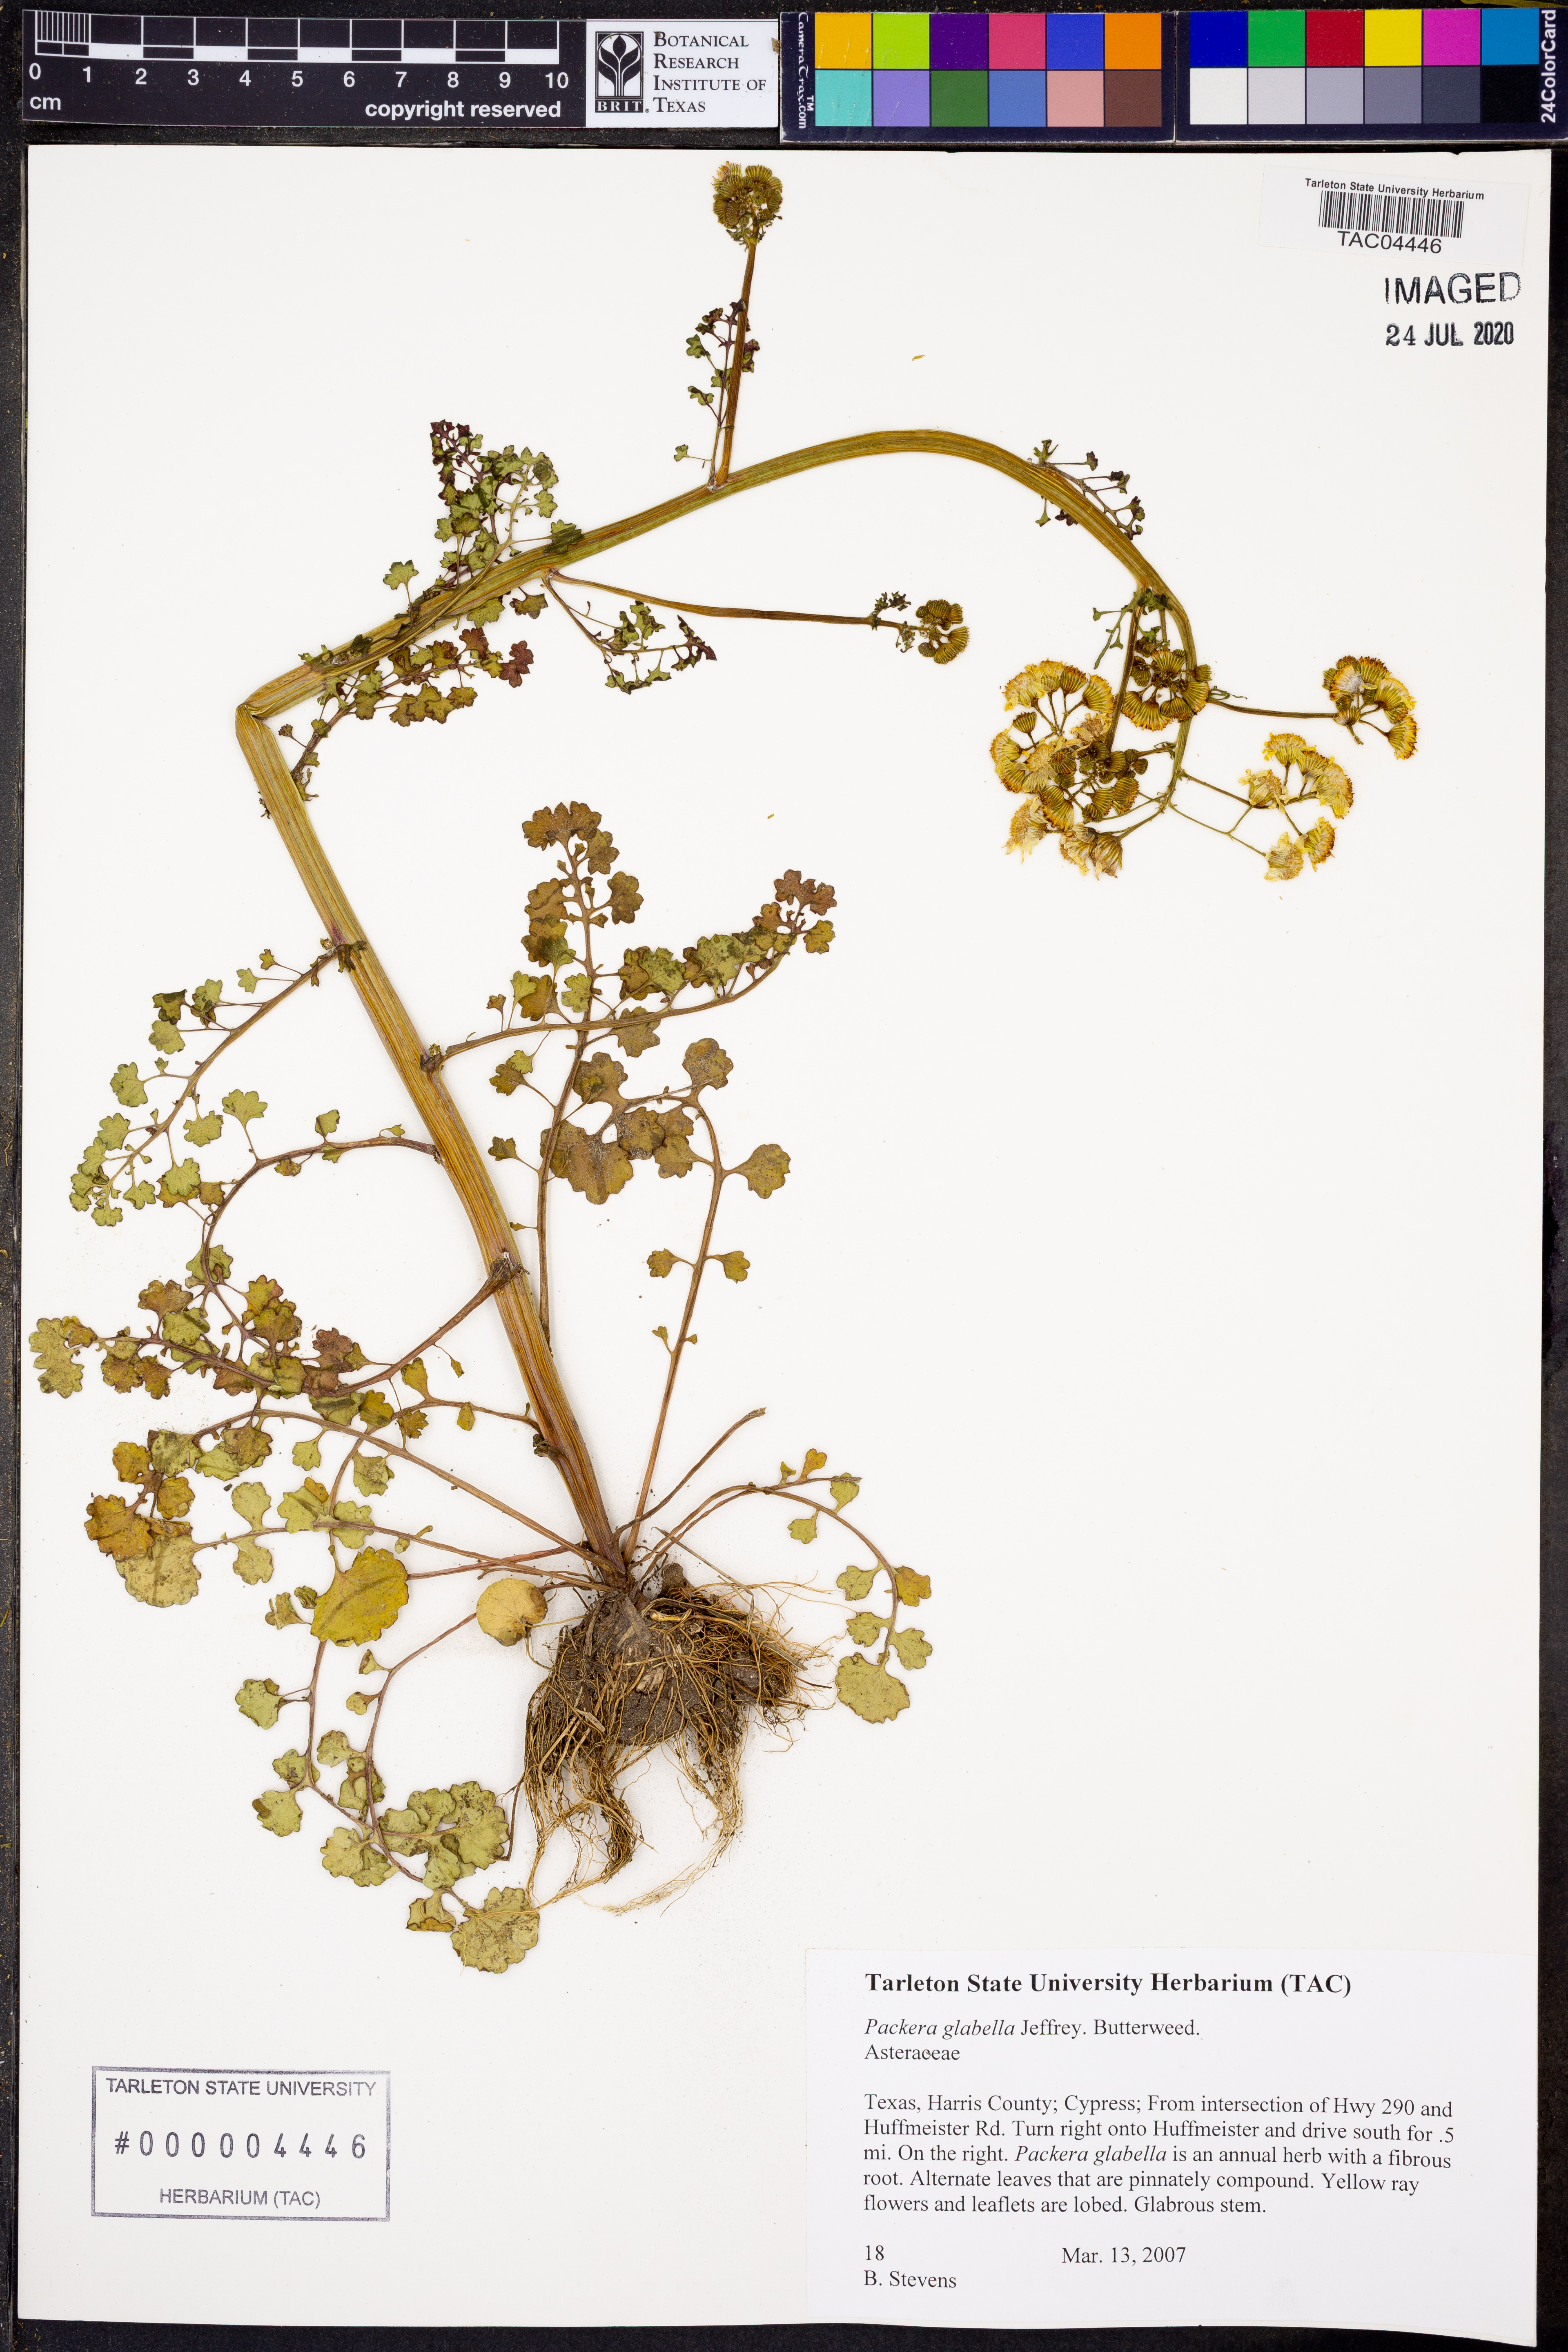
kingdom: Plantae
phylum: Tracheophyta
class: Magnoliopsida
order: Asterales
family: Asteraceae
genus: Packera
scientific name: Packera glabella
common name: Butterweed
